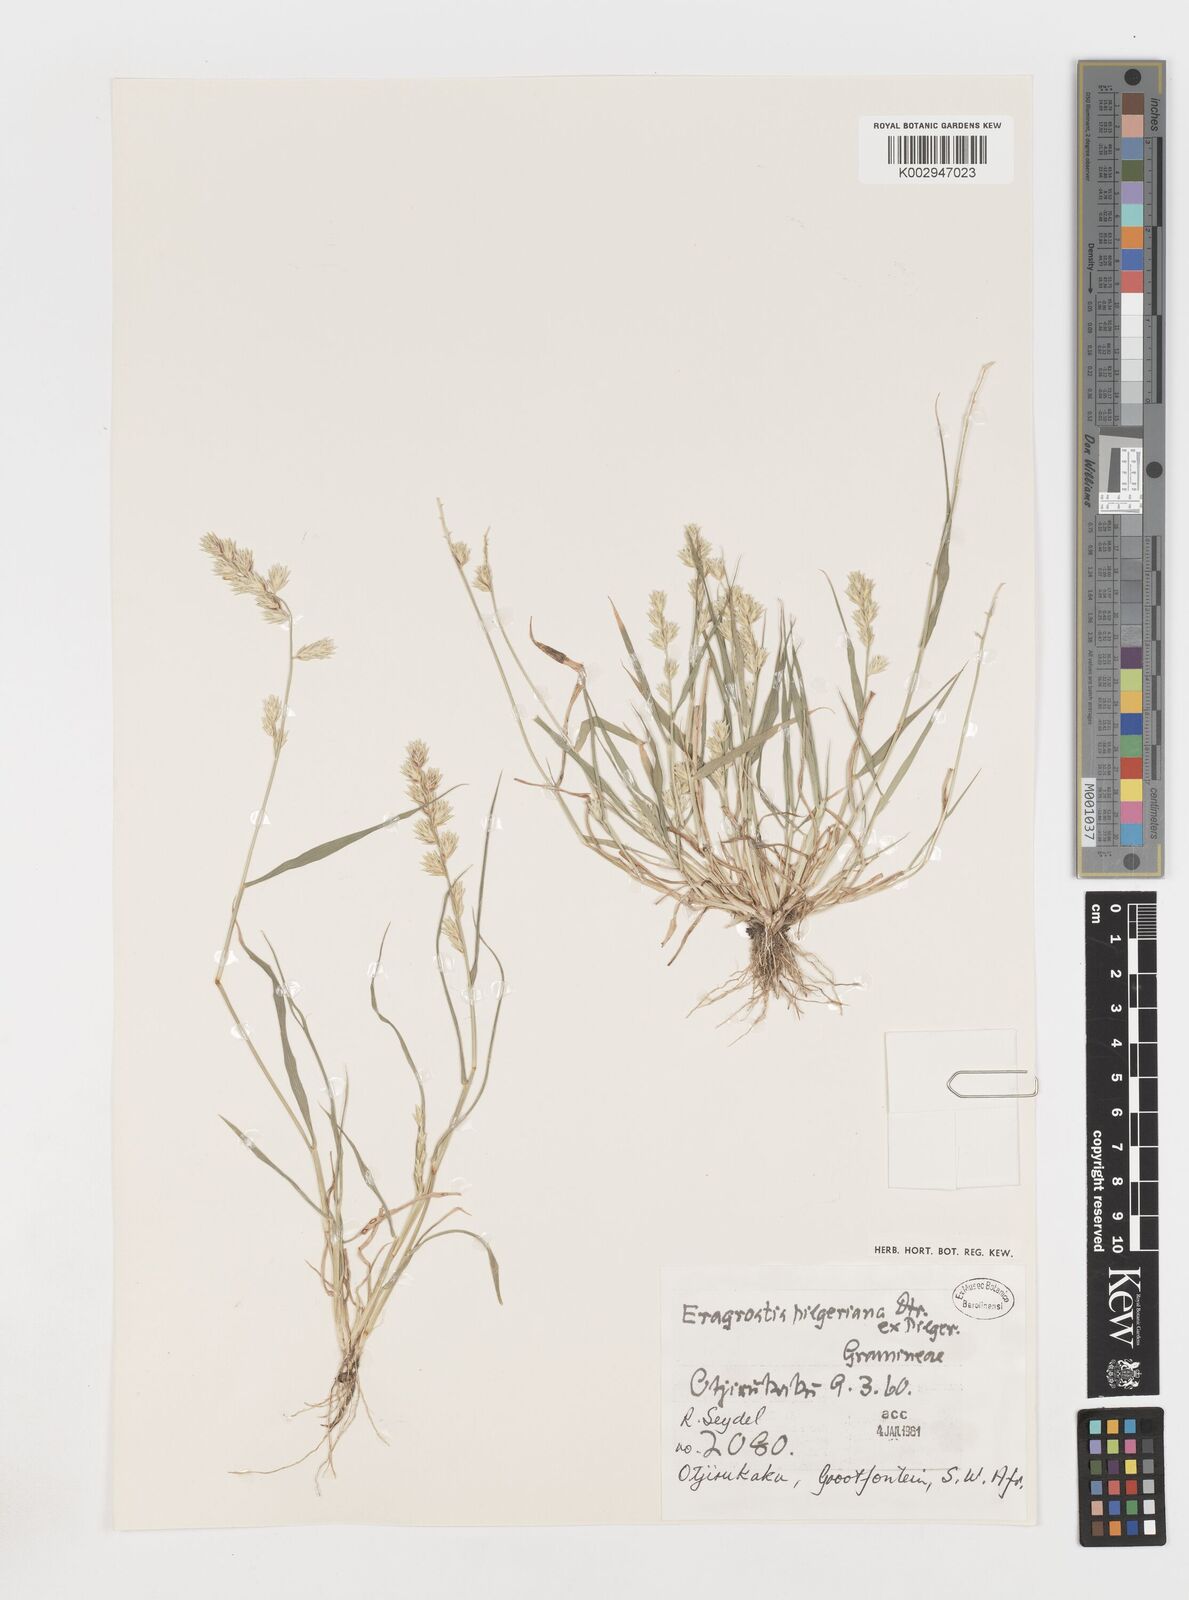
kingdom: Plantae
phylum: Tracheophyta
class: Liliopsida
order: Poales
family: Poaceae
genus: Eragrostis
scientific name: Eragrostis pilgeriana
